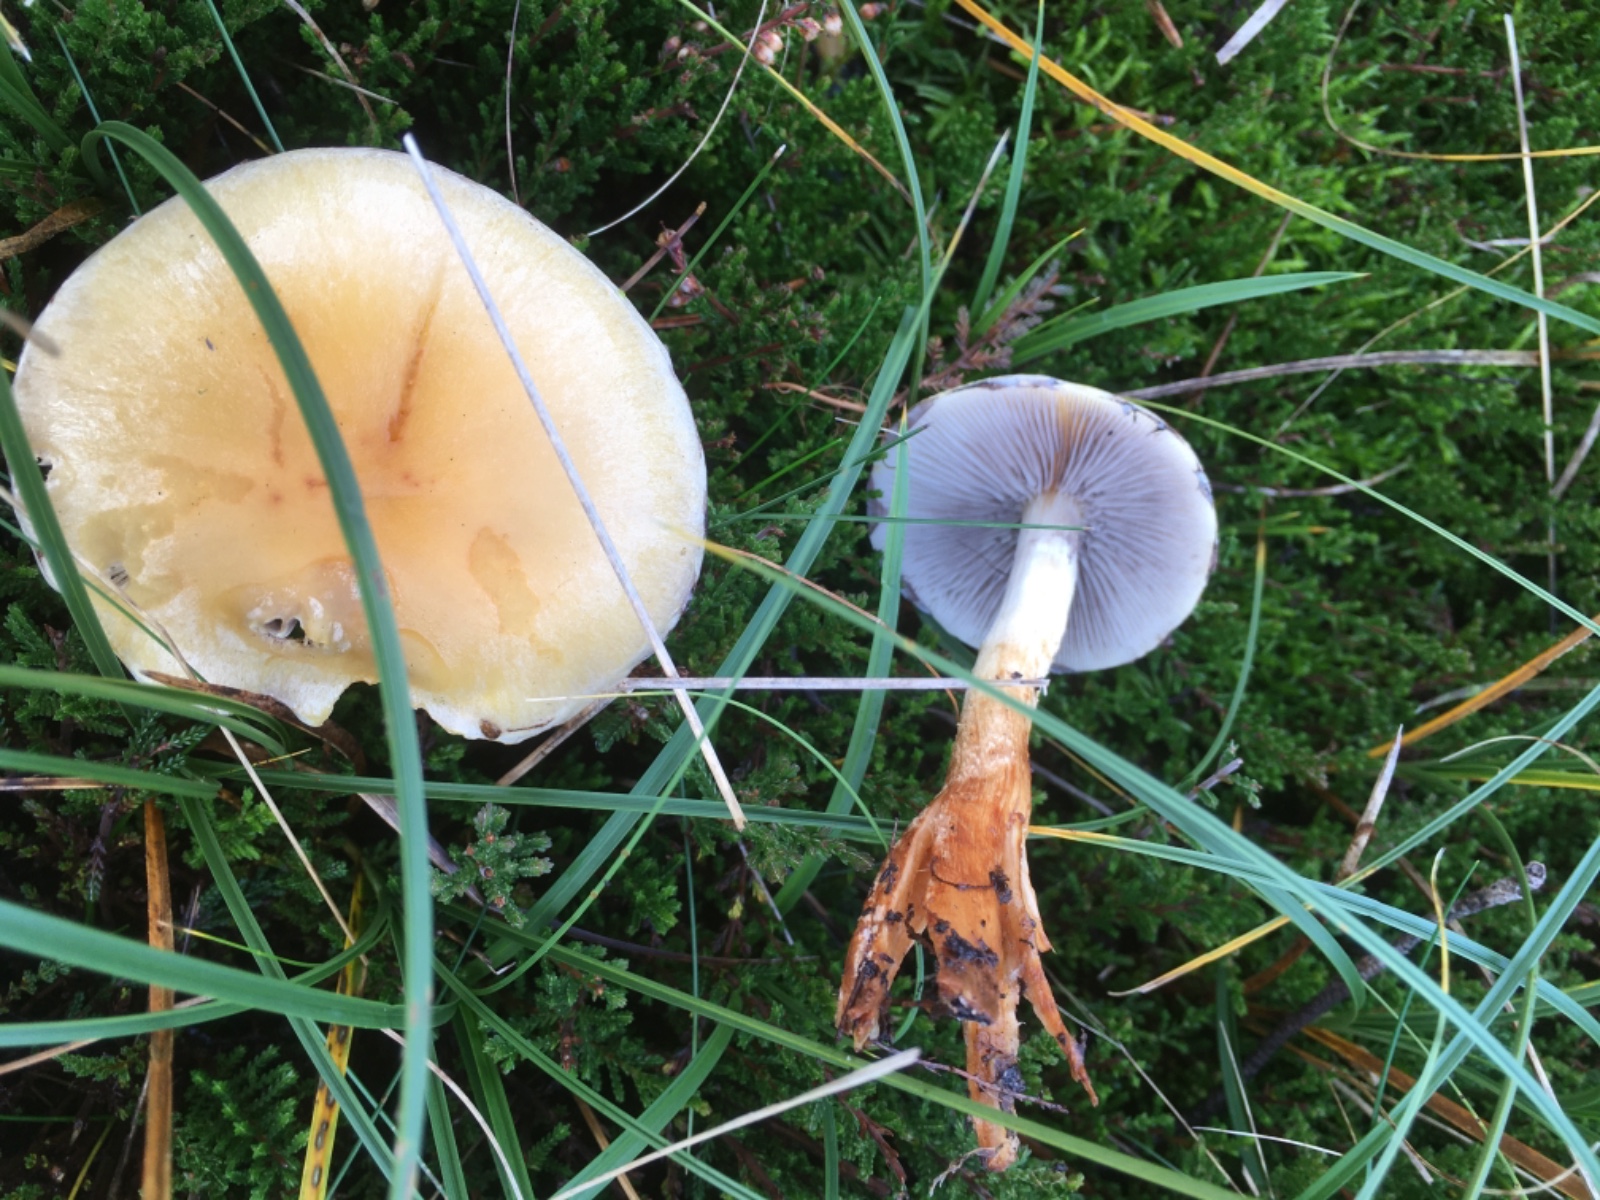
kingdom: Fungi
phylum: Basidiomycota
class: Agaricomycetes
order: Agaricales
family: Strophariaceae
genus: Hypholoma
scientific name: Hypholoma capnoides
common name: gran-svovlhat
